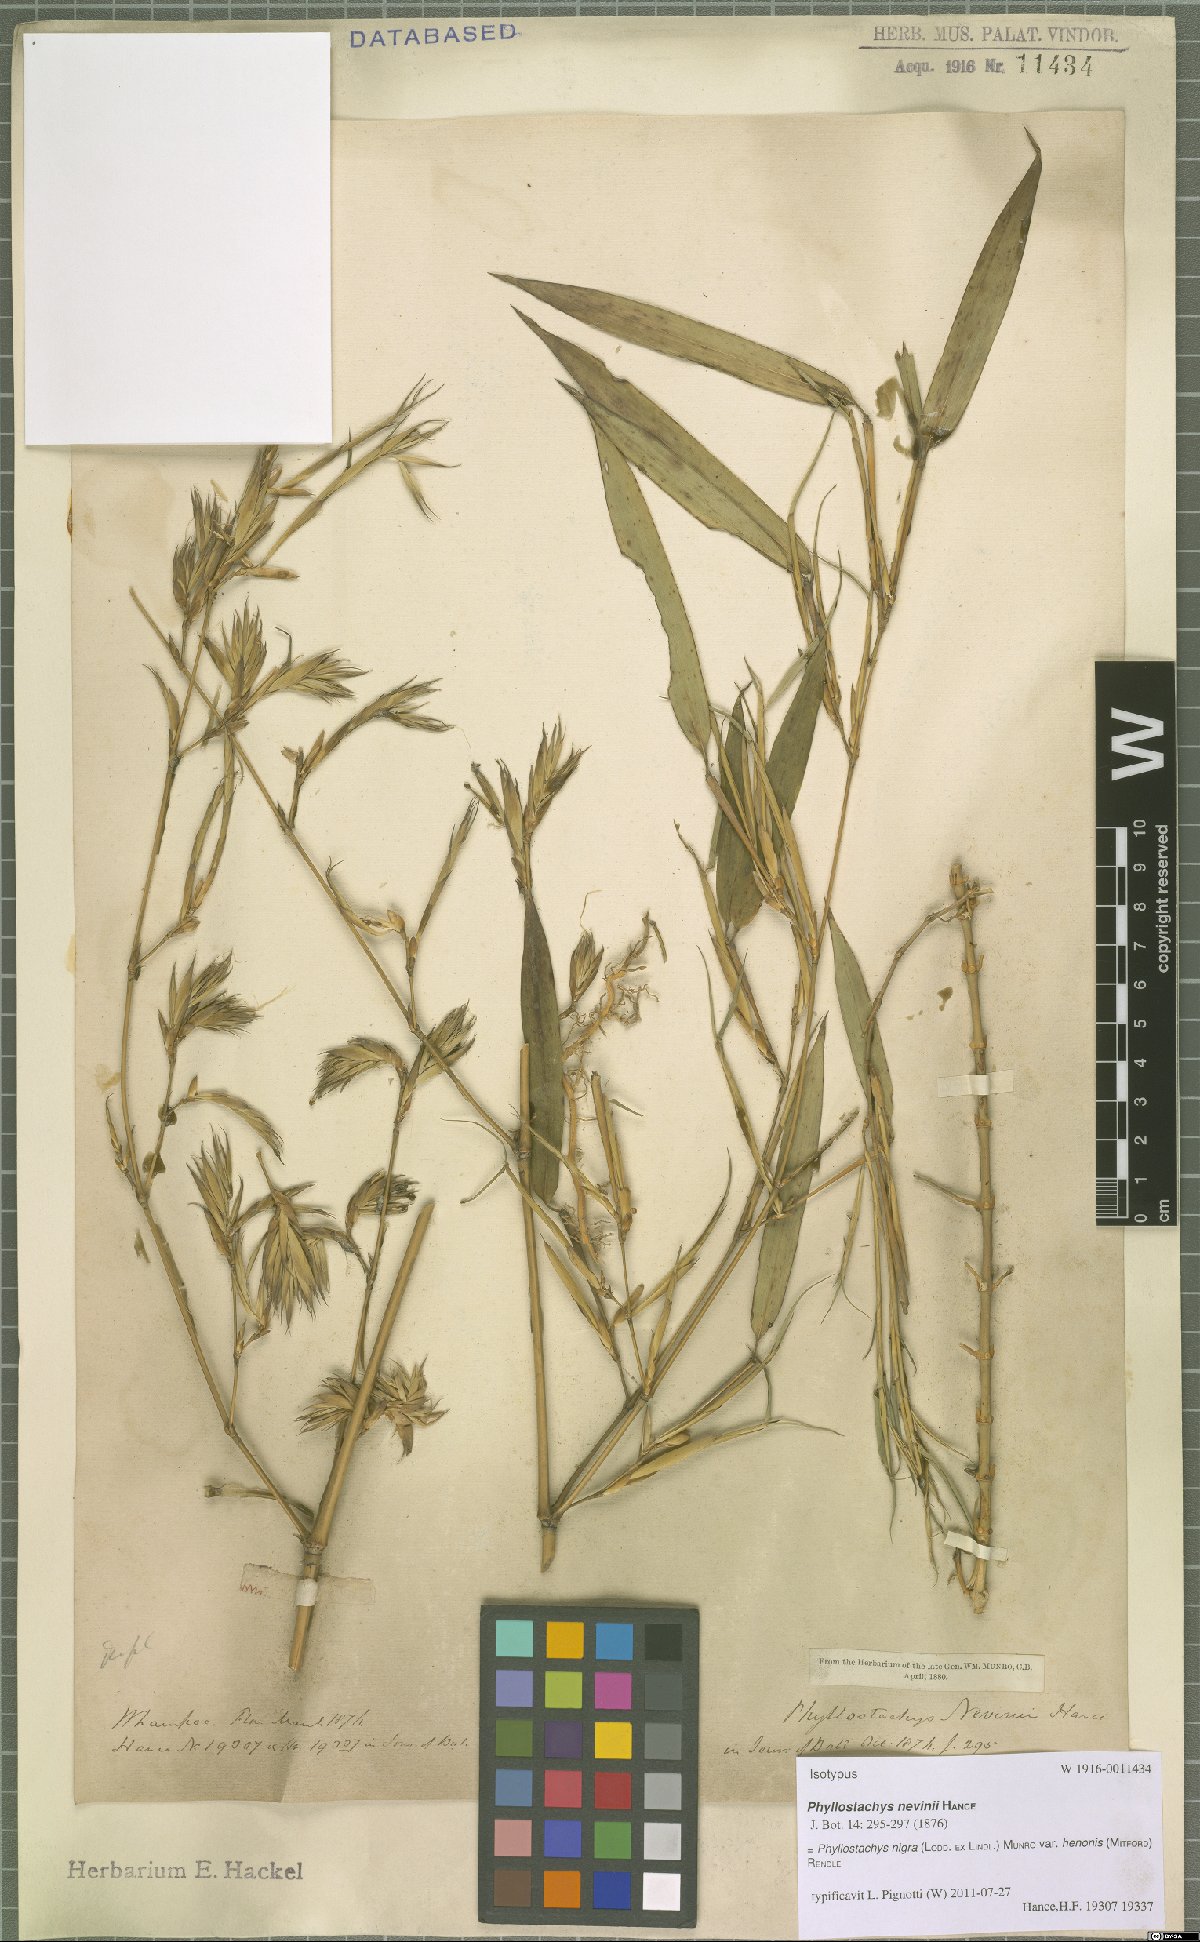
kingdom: Plantae
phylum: Tracheophyta
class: Liliopsida
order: Poales
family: Poaceae
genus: Phyllostachys
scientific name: Phyllostachys nigra
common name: Black bamboo
